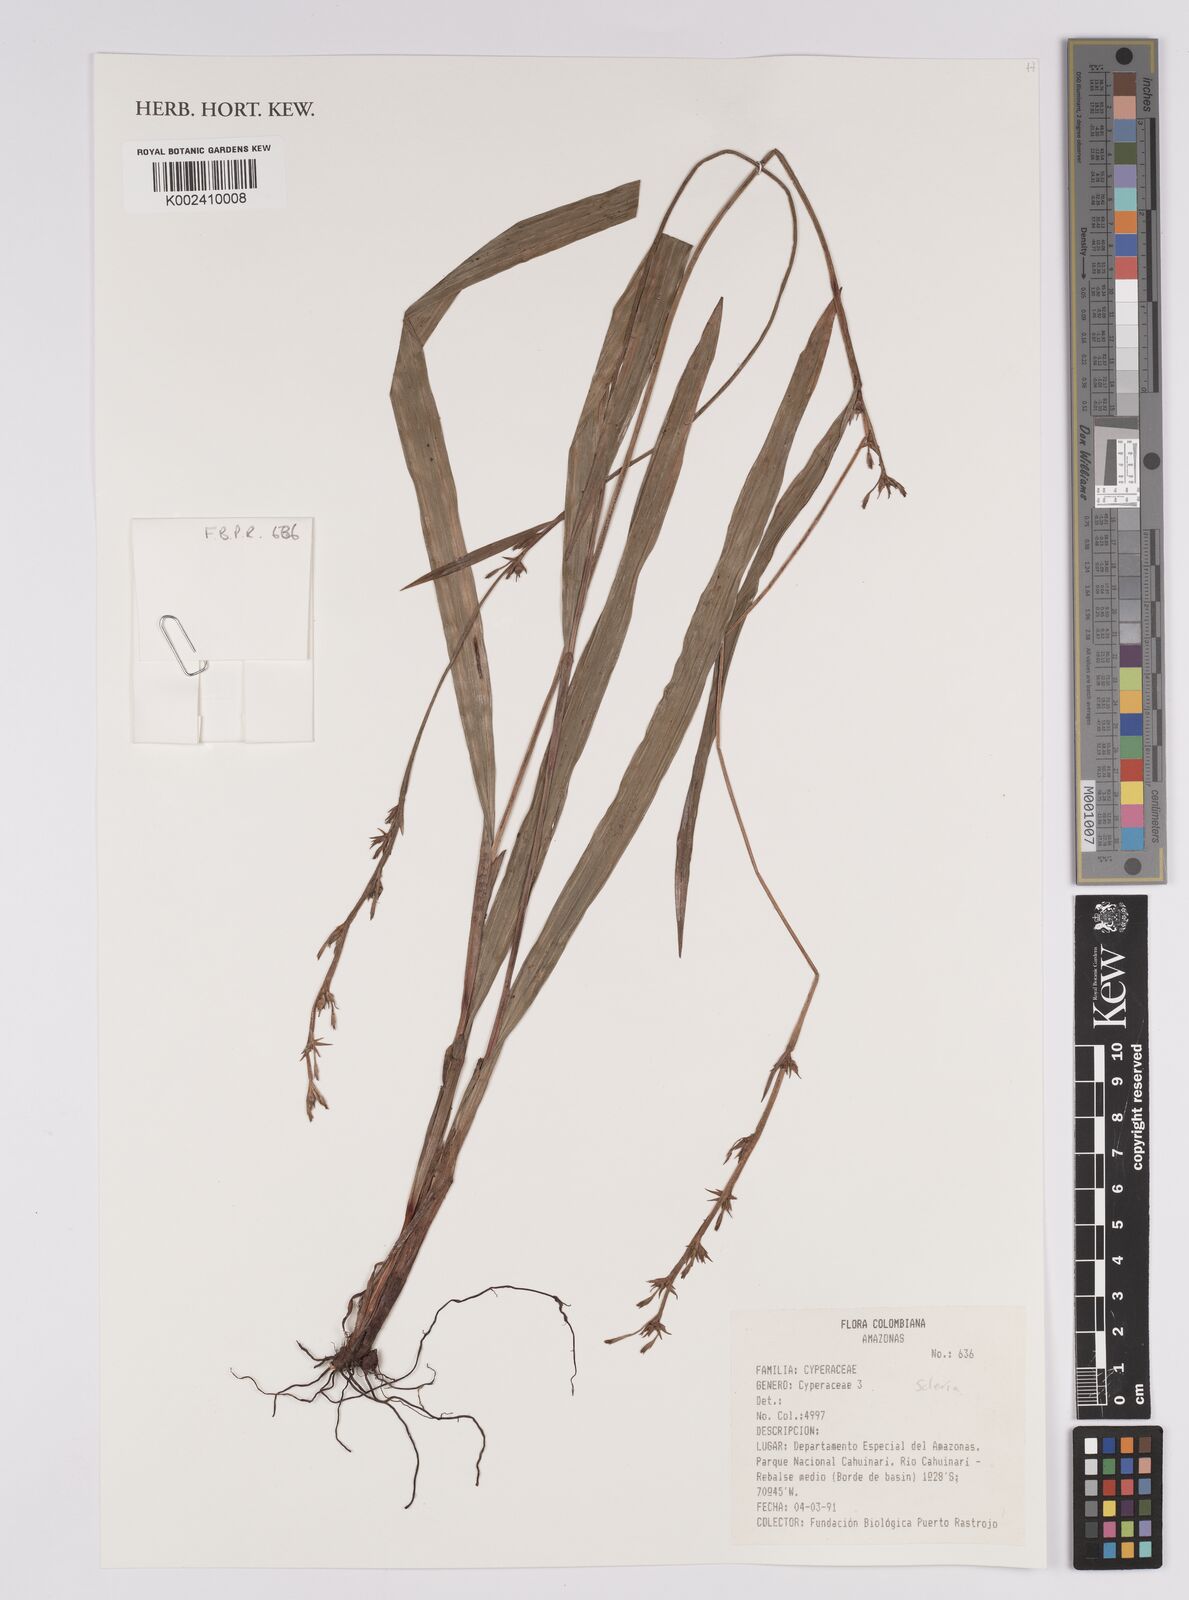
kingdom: Plantae
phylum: Tracheophyta
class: Liliopsida
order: Poales
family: Cyperaceae
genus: Scleria
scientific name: Scleria
